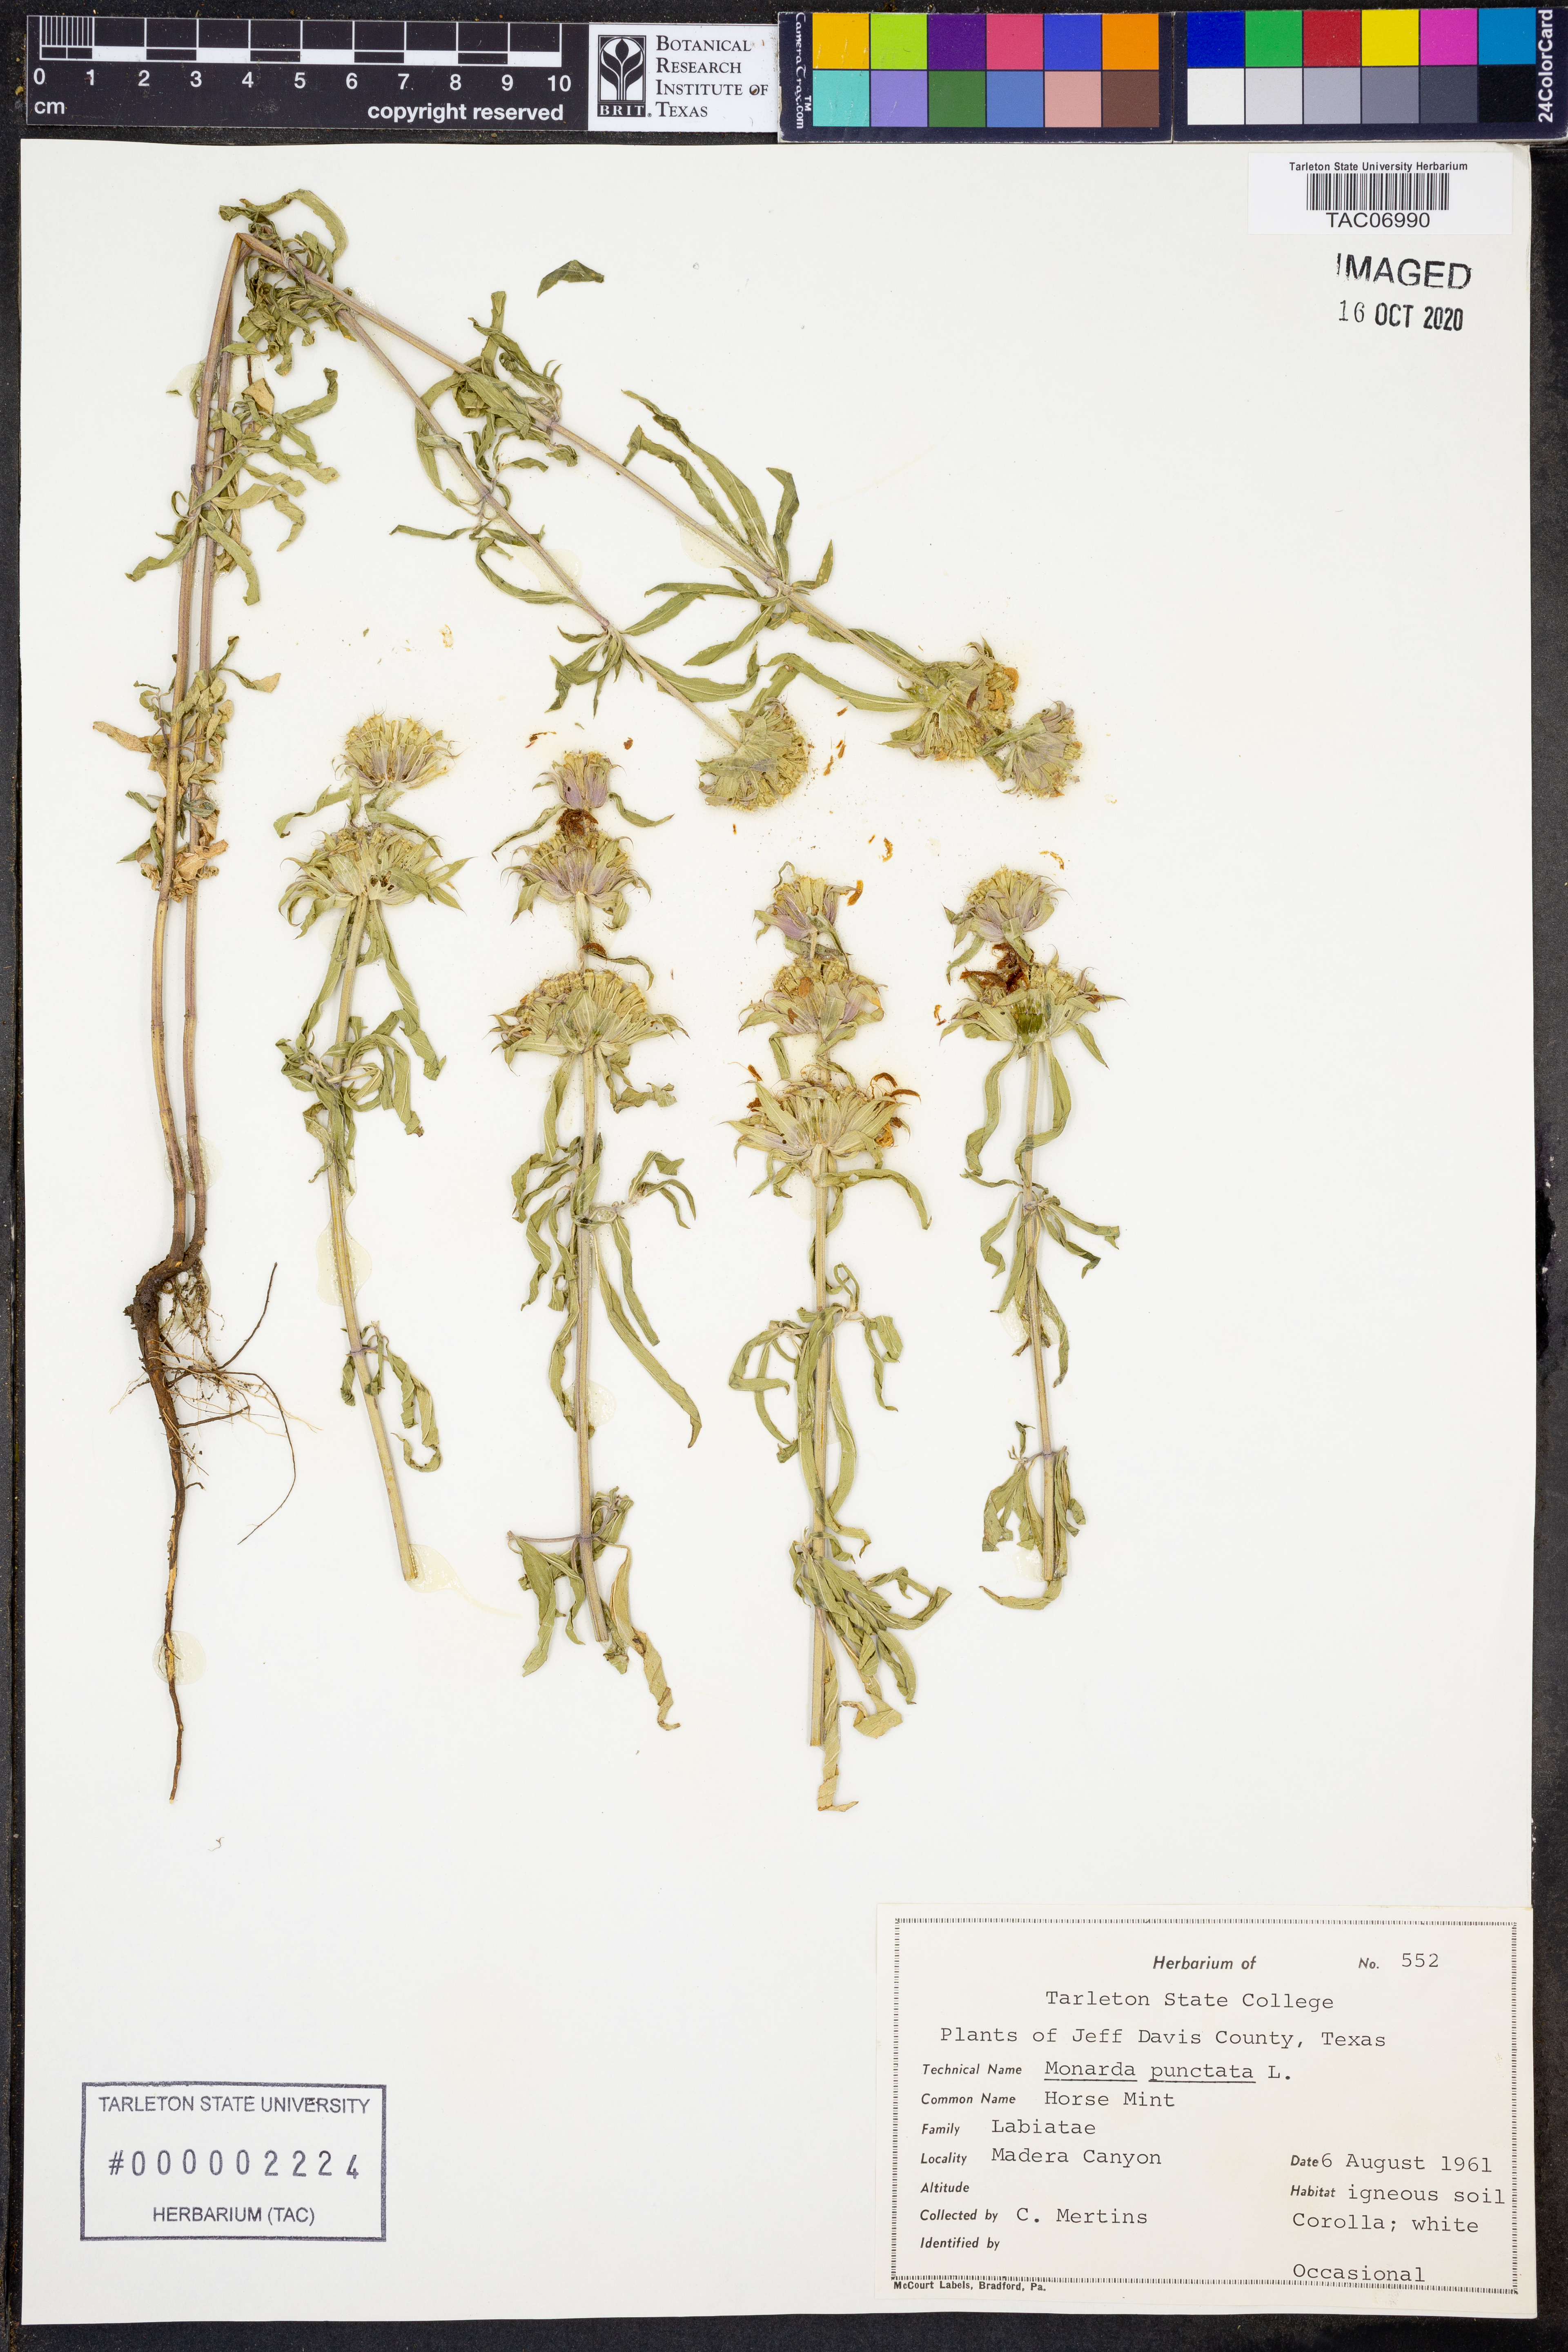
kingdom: Plantae
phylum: Tracheophyta
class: Magnoliopsida
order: Lamiales
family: Lamiaceae
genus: Monarda
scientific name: Monarda punctata
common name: Dotted monarda
